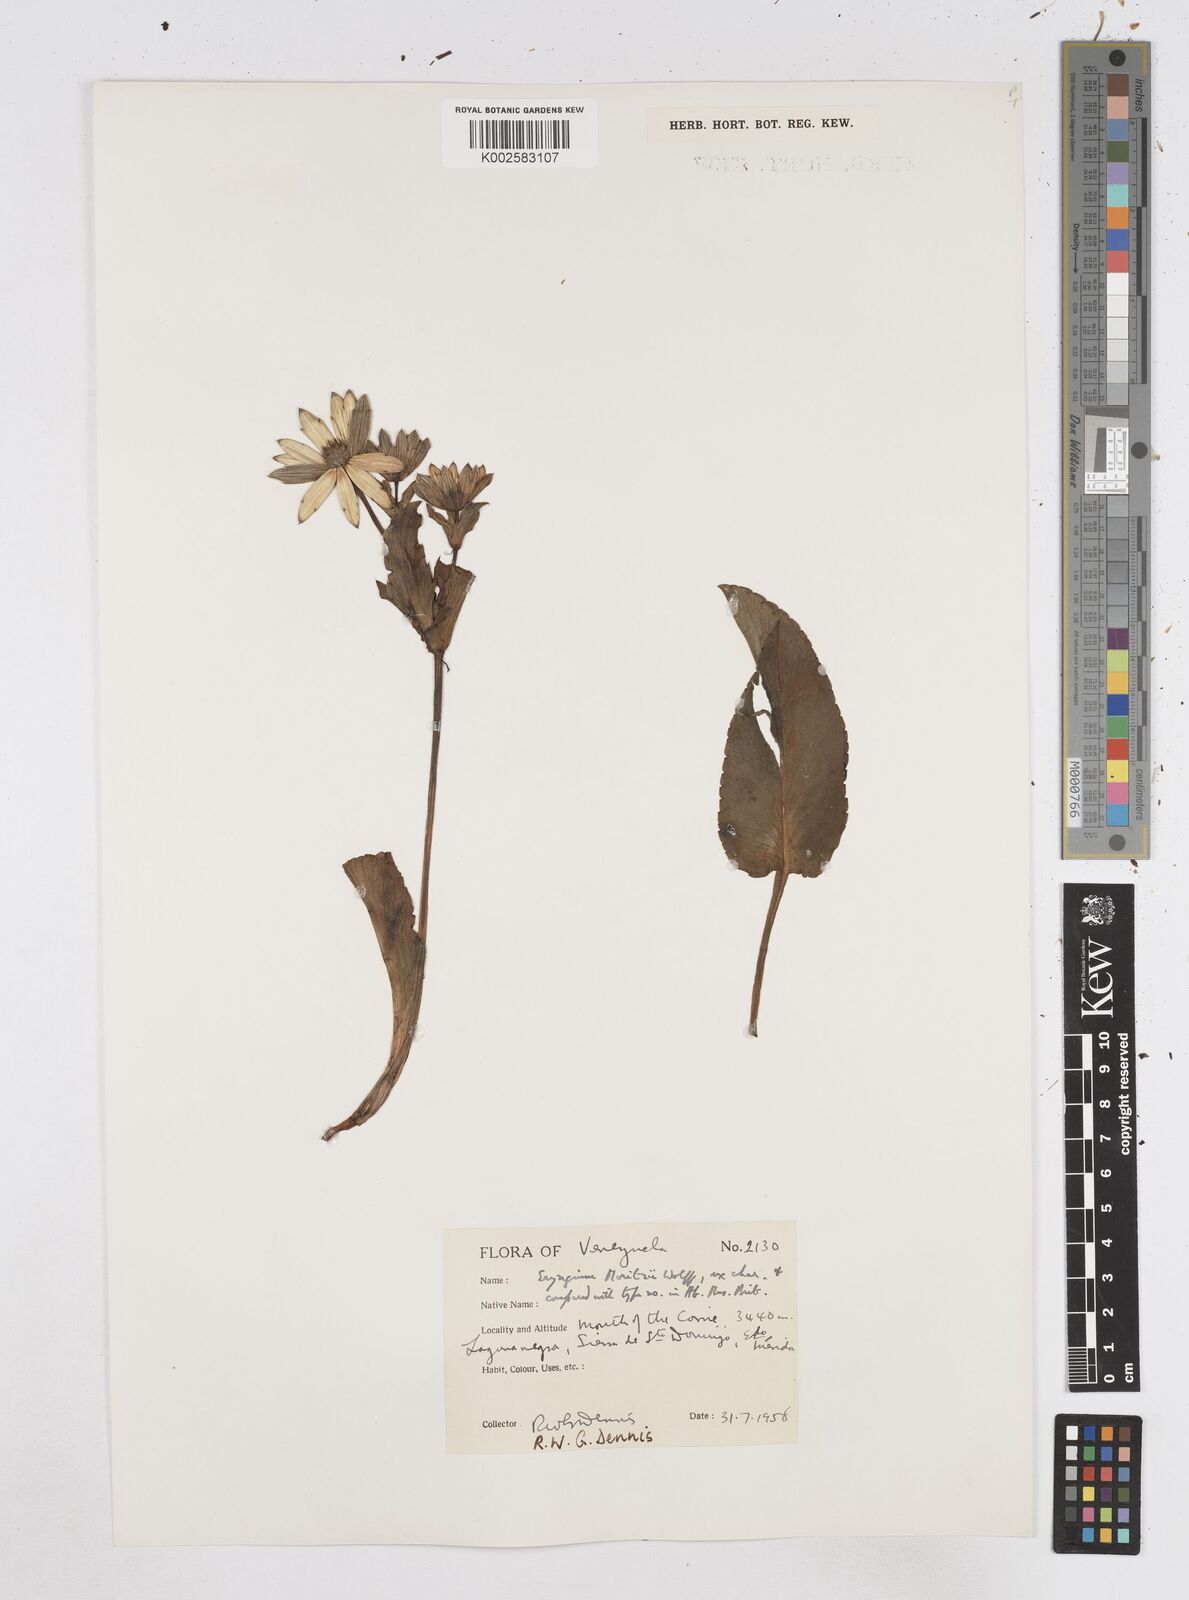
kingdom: Plantae
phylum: Tracheophyta
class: Magnoliopsida
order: Apiales
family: Apiaceae
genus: Eryngium
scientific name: Eryngium humile
